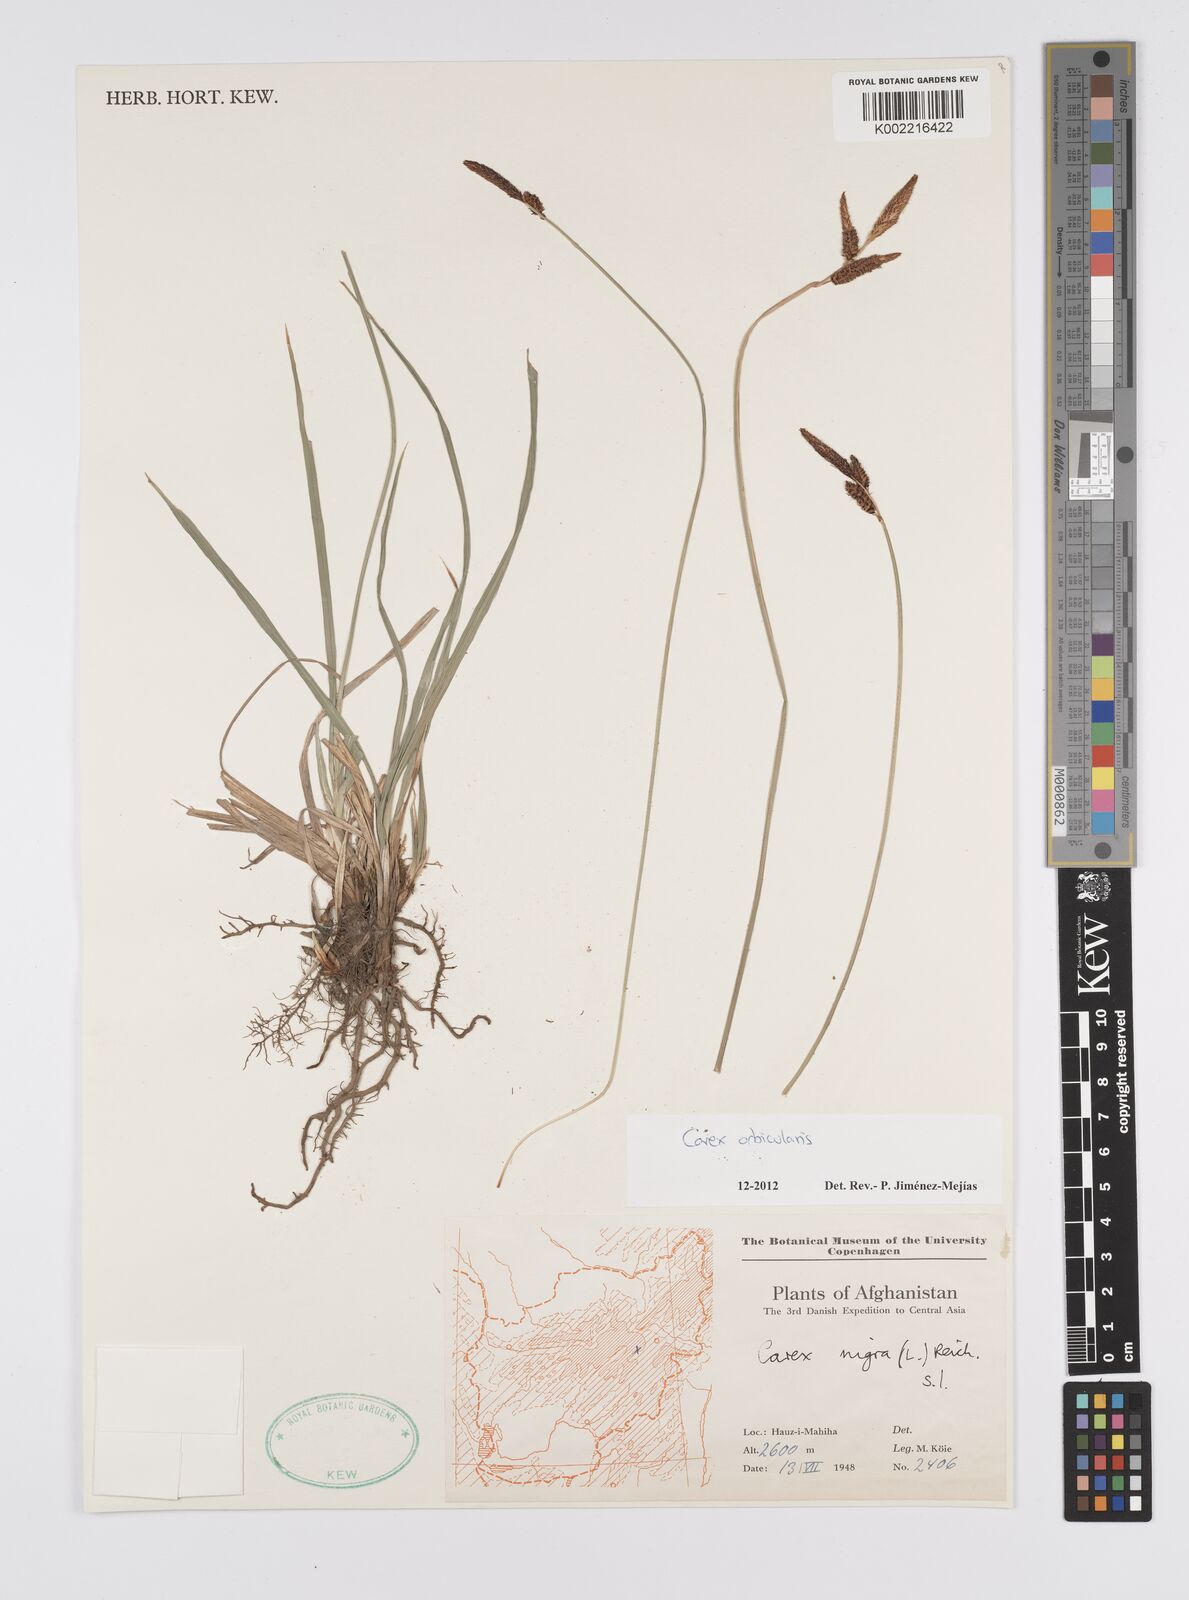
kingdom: Plantae
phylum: Tracheophyta
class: Liliopsida
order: Poales
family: Cyperaceae
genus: Carex
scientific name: Carex orbicularis
